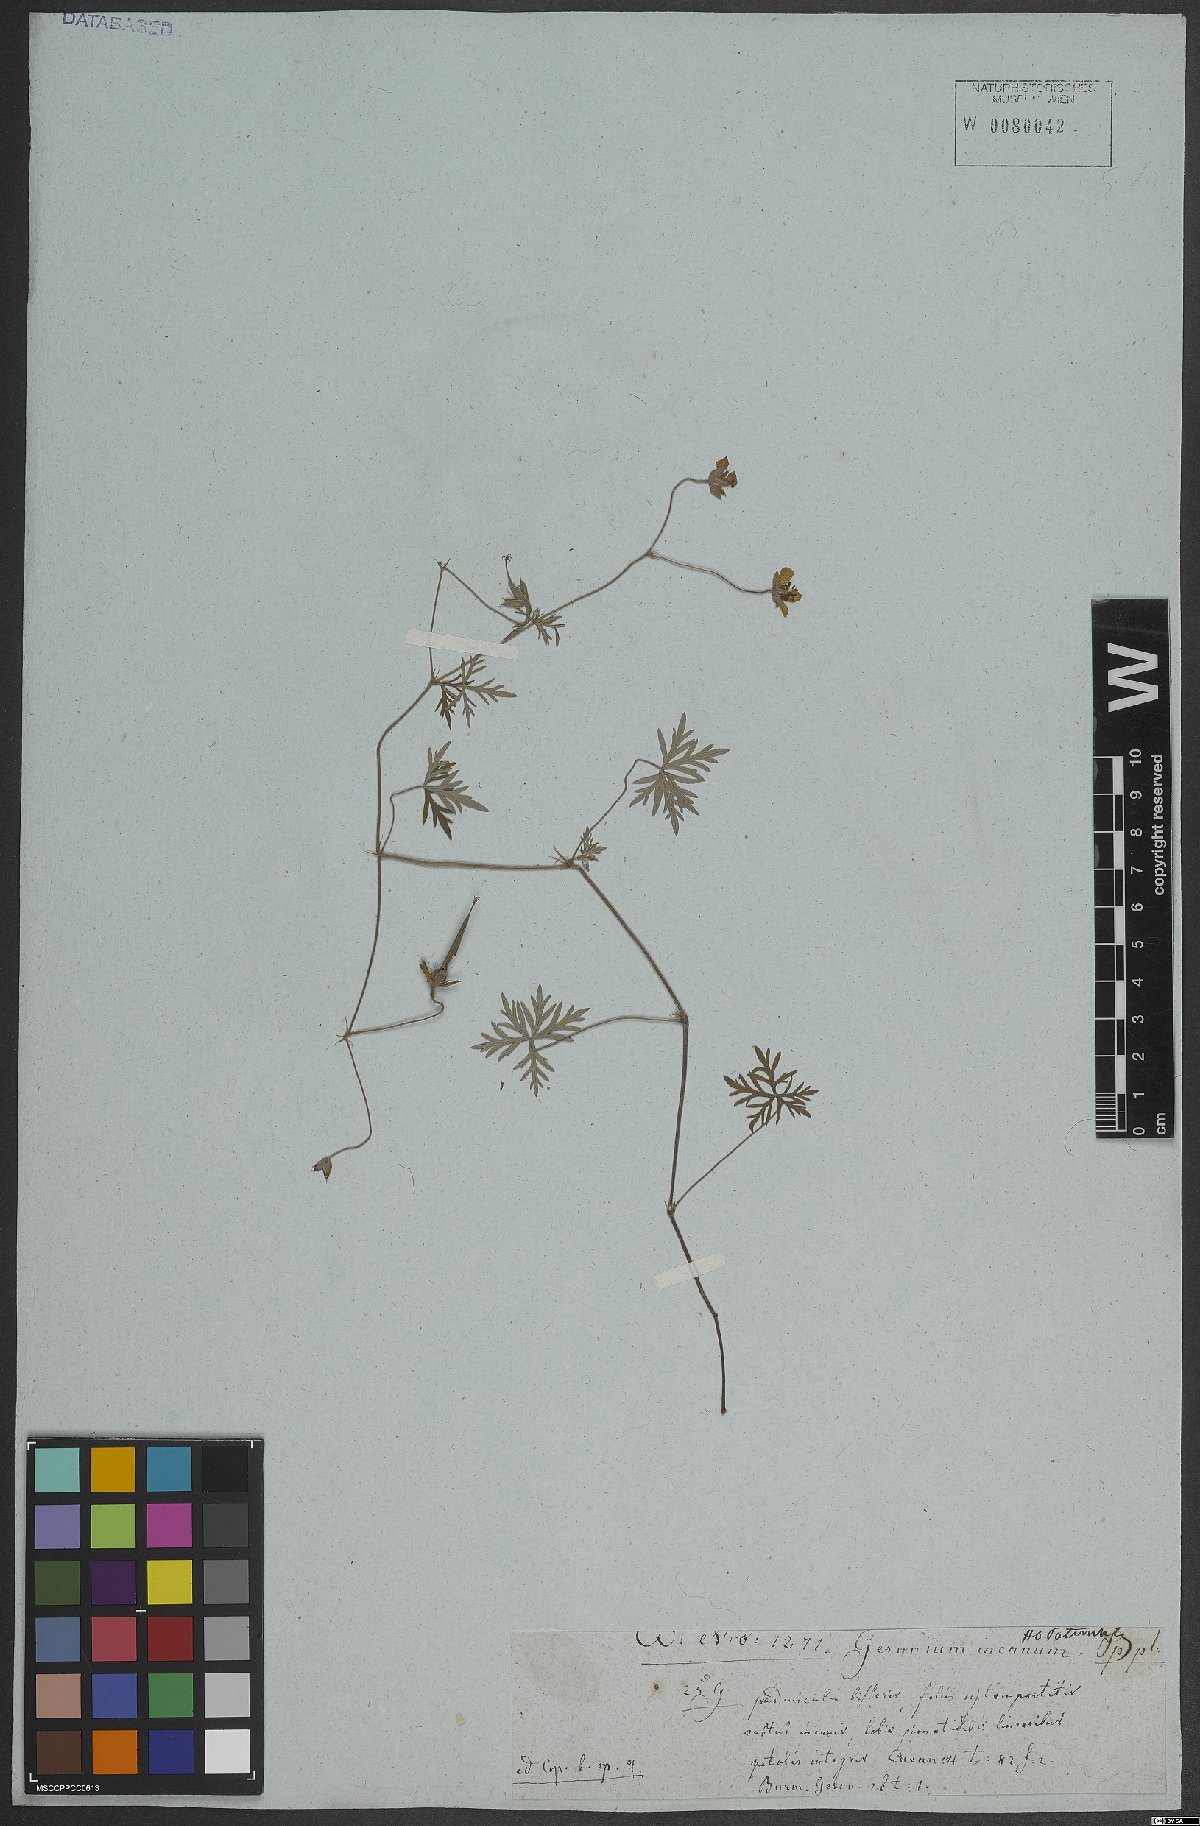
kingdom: Plantae
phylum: Tracheophyta
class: Magnoliopsida
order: Geraniales
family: Geraniaceae
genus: Geranium
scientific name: Geranium canescens
